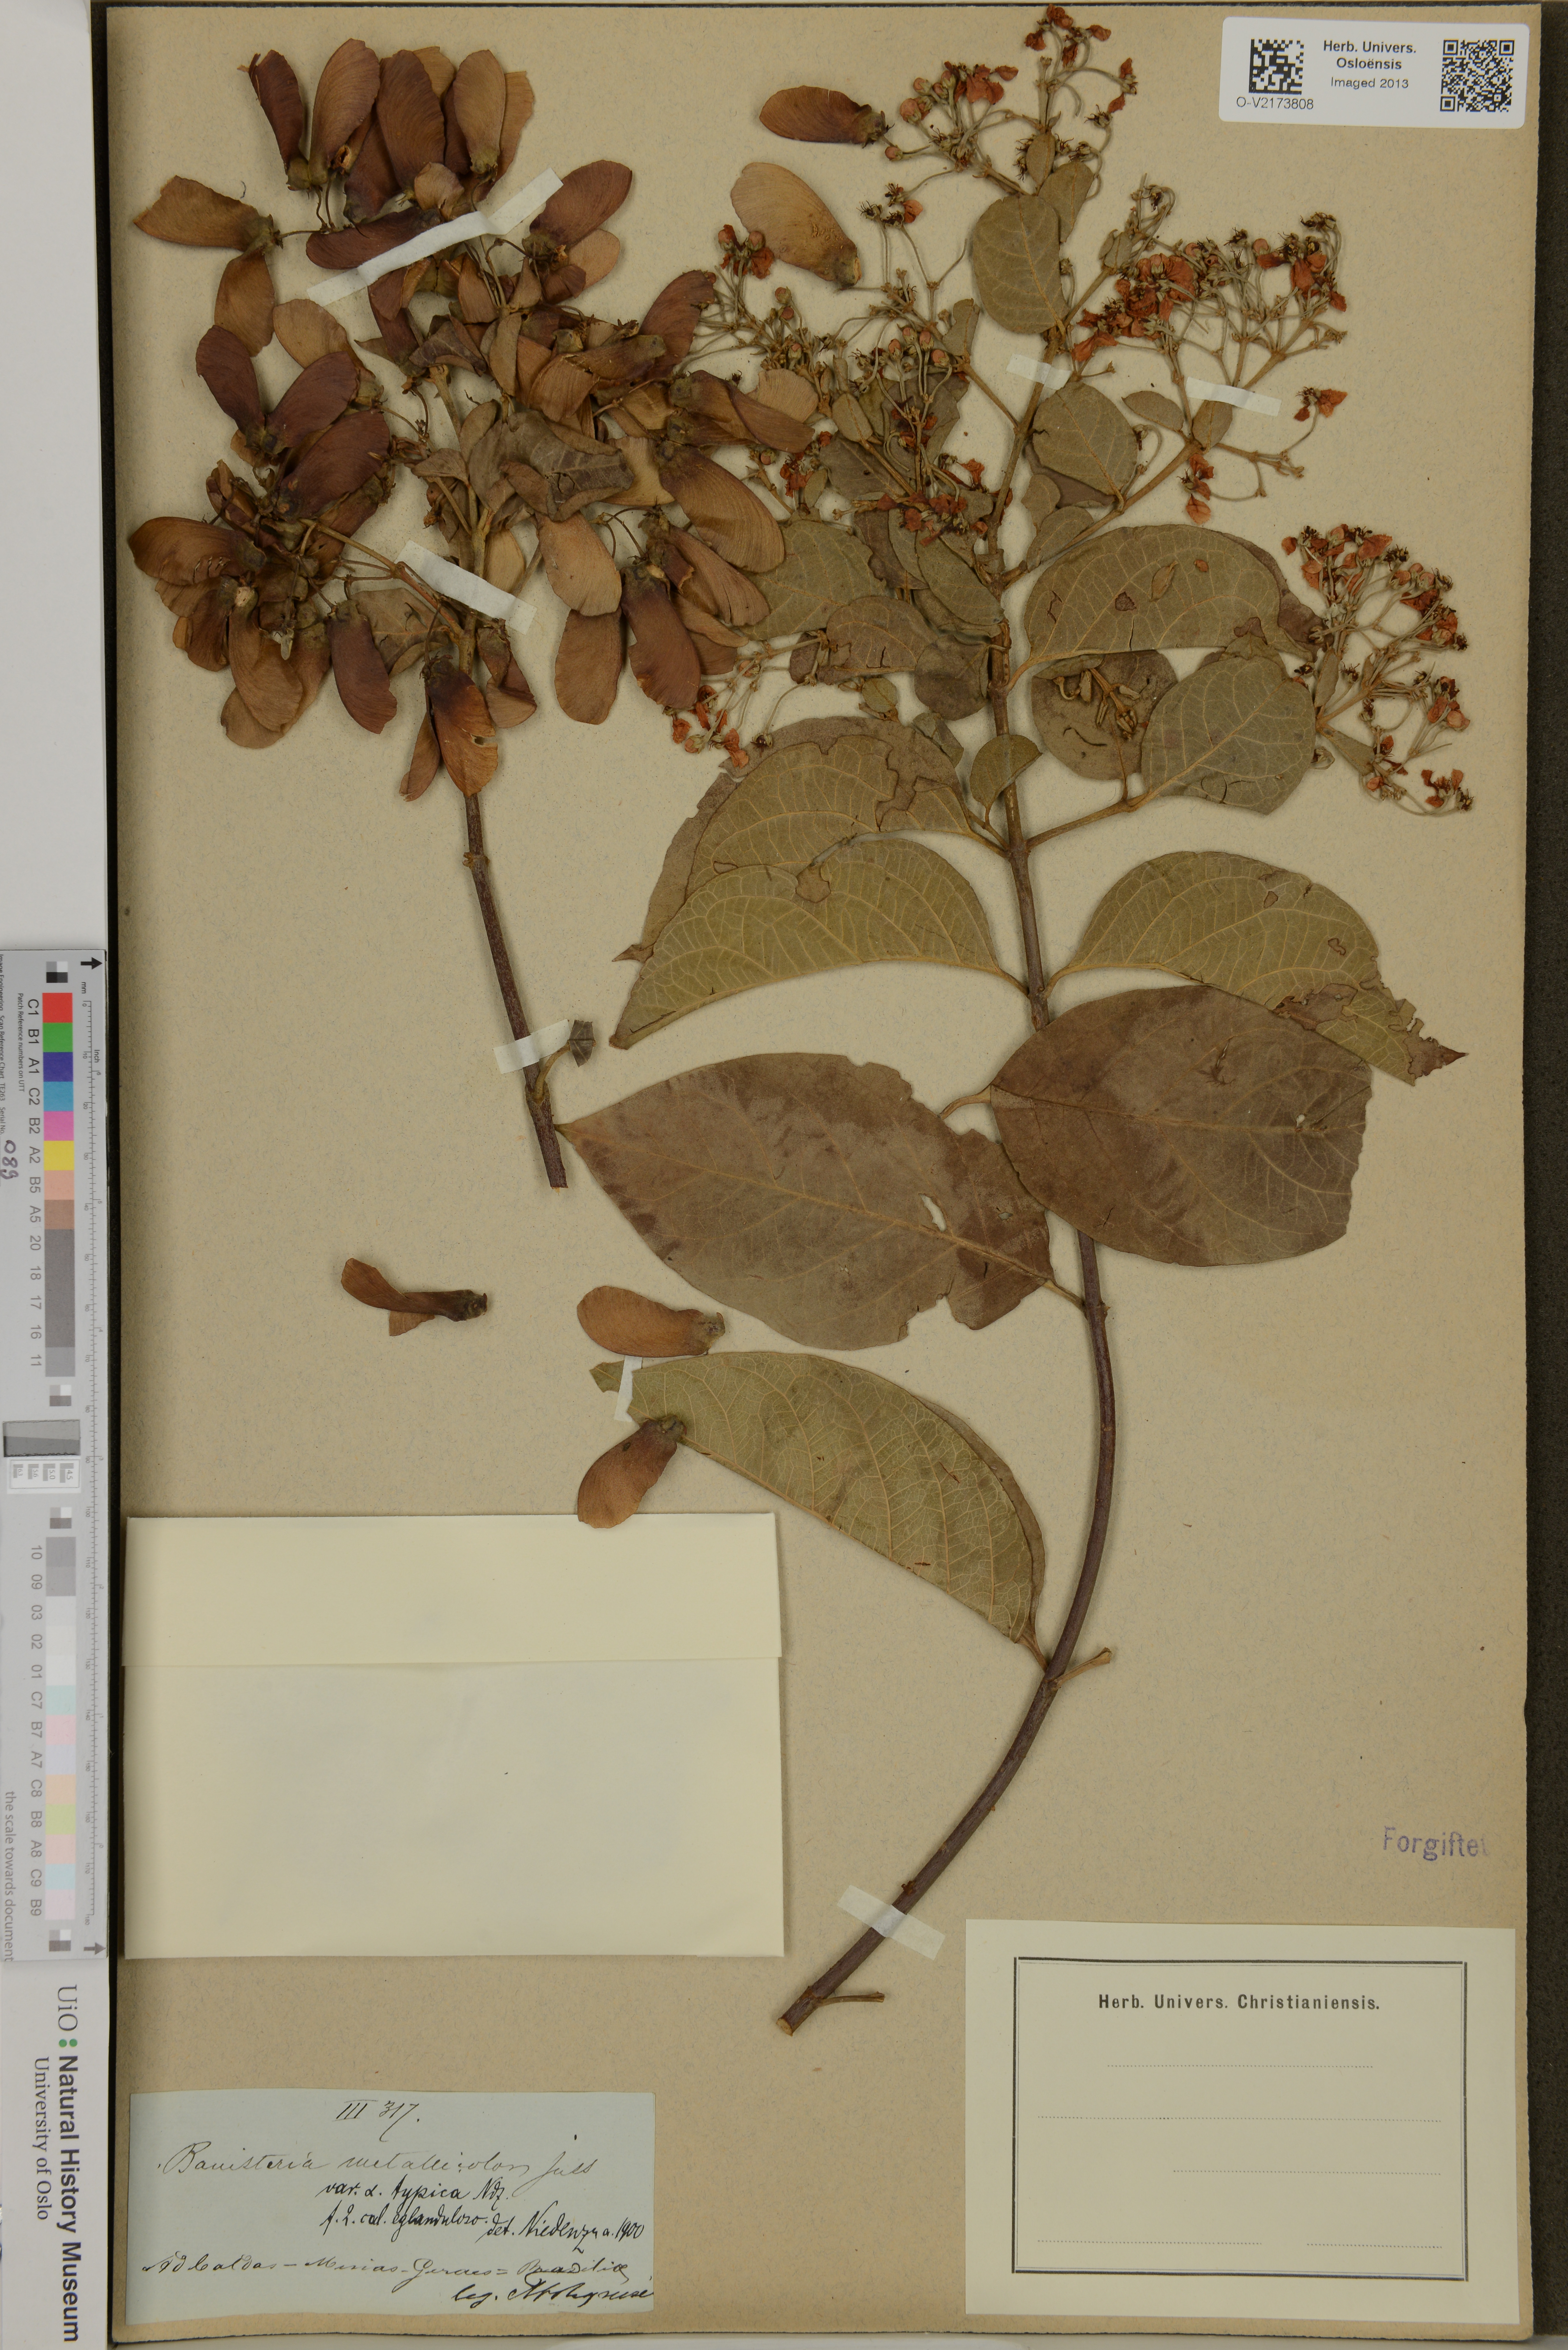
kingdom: Plantae
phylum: Tracheophyta
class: Magnoliopsida
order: Malpighiales
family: Malpighiaceae
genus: Banisteriopsis
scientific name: Banisteriopsis muricata
